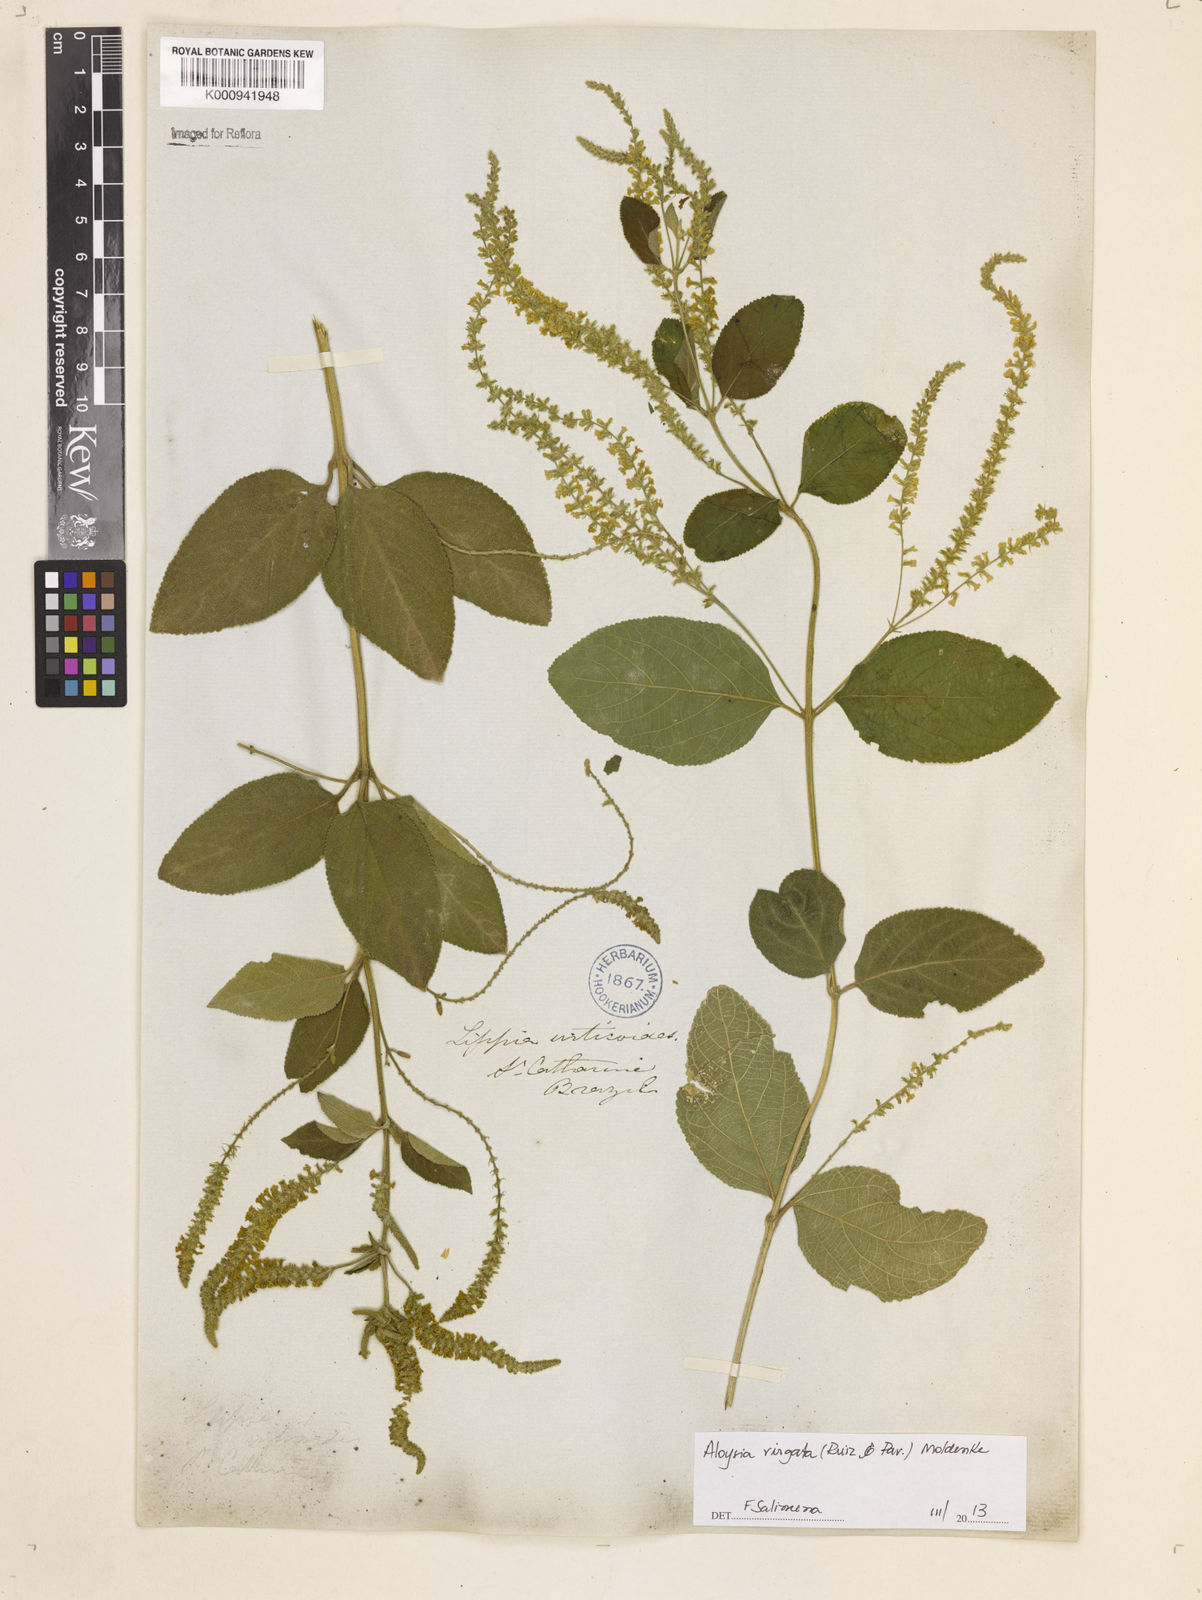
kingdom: Plantae
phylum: Tracheophyta
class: Magnoliopsida
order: Lamiales
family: Verbenaceae
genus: Aloysia
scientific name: Aloysia
